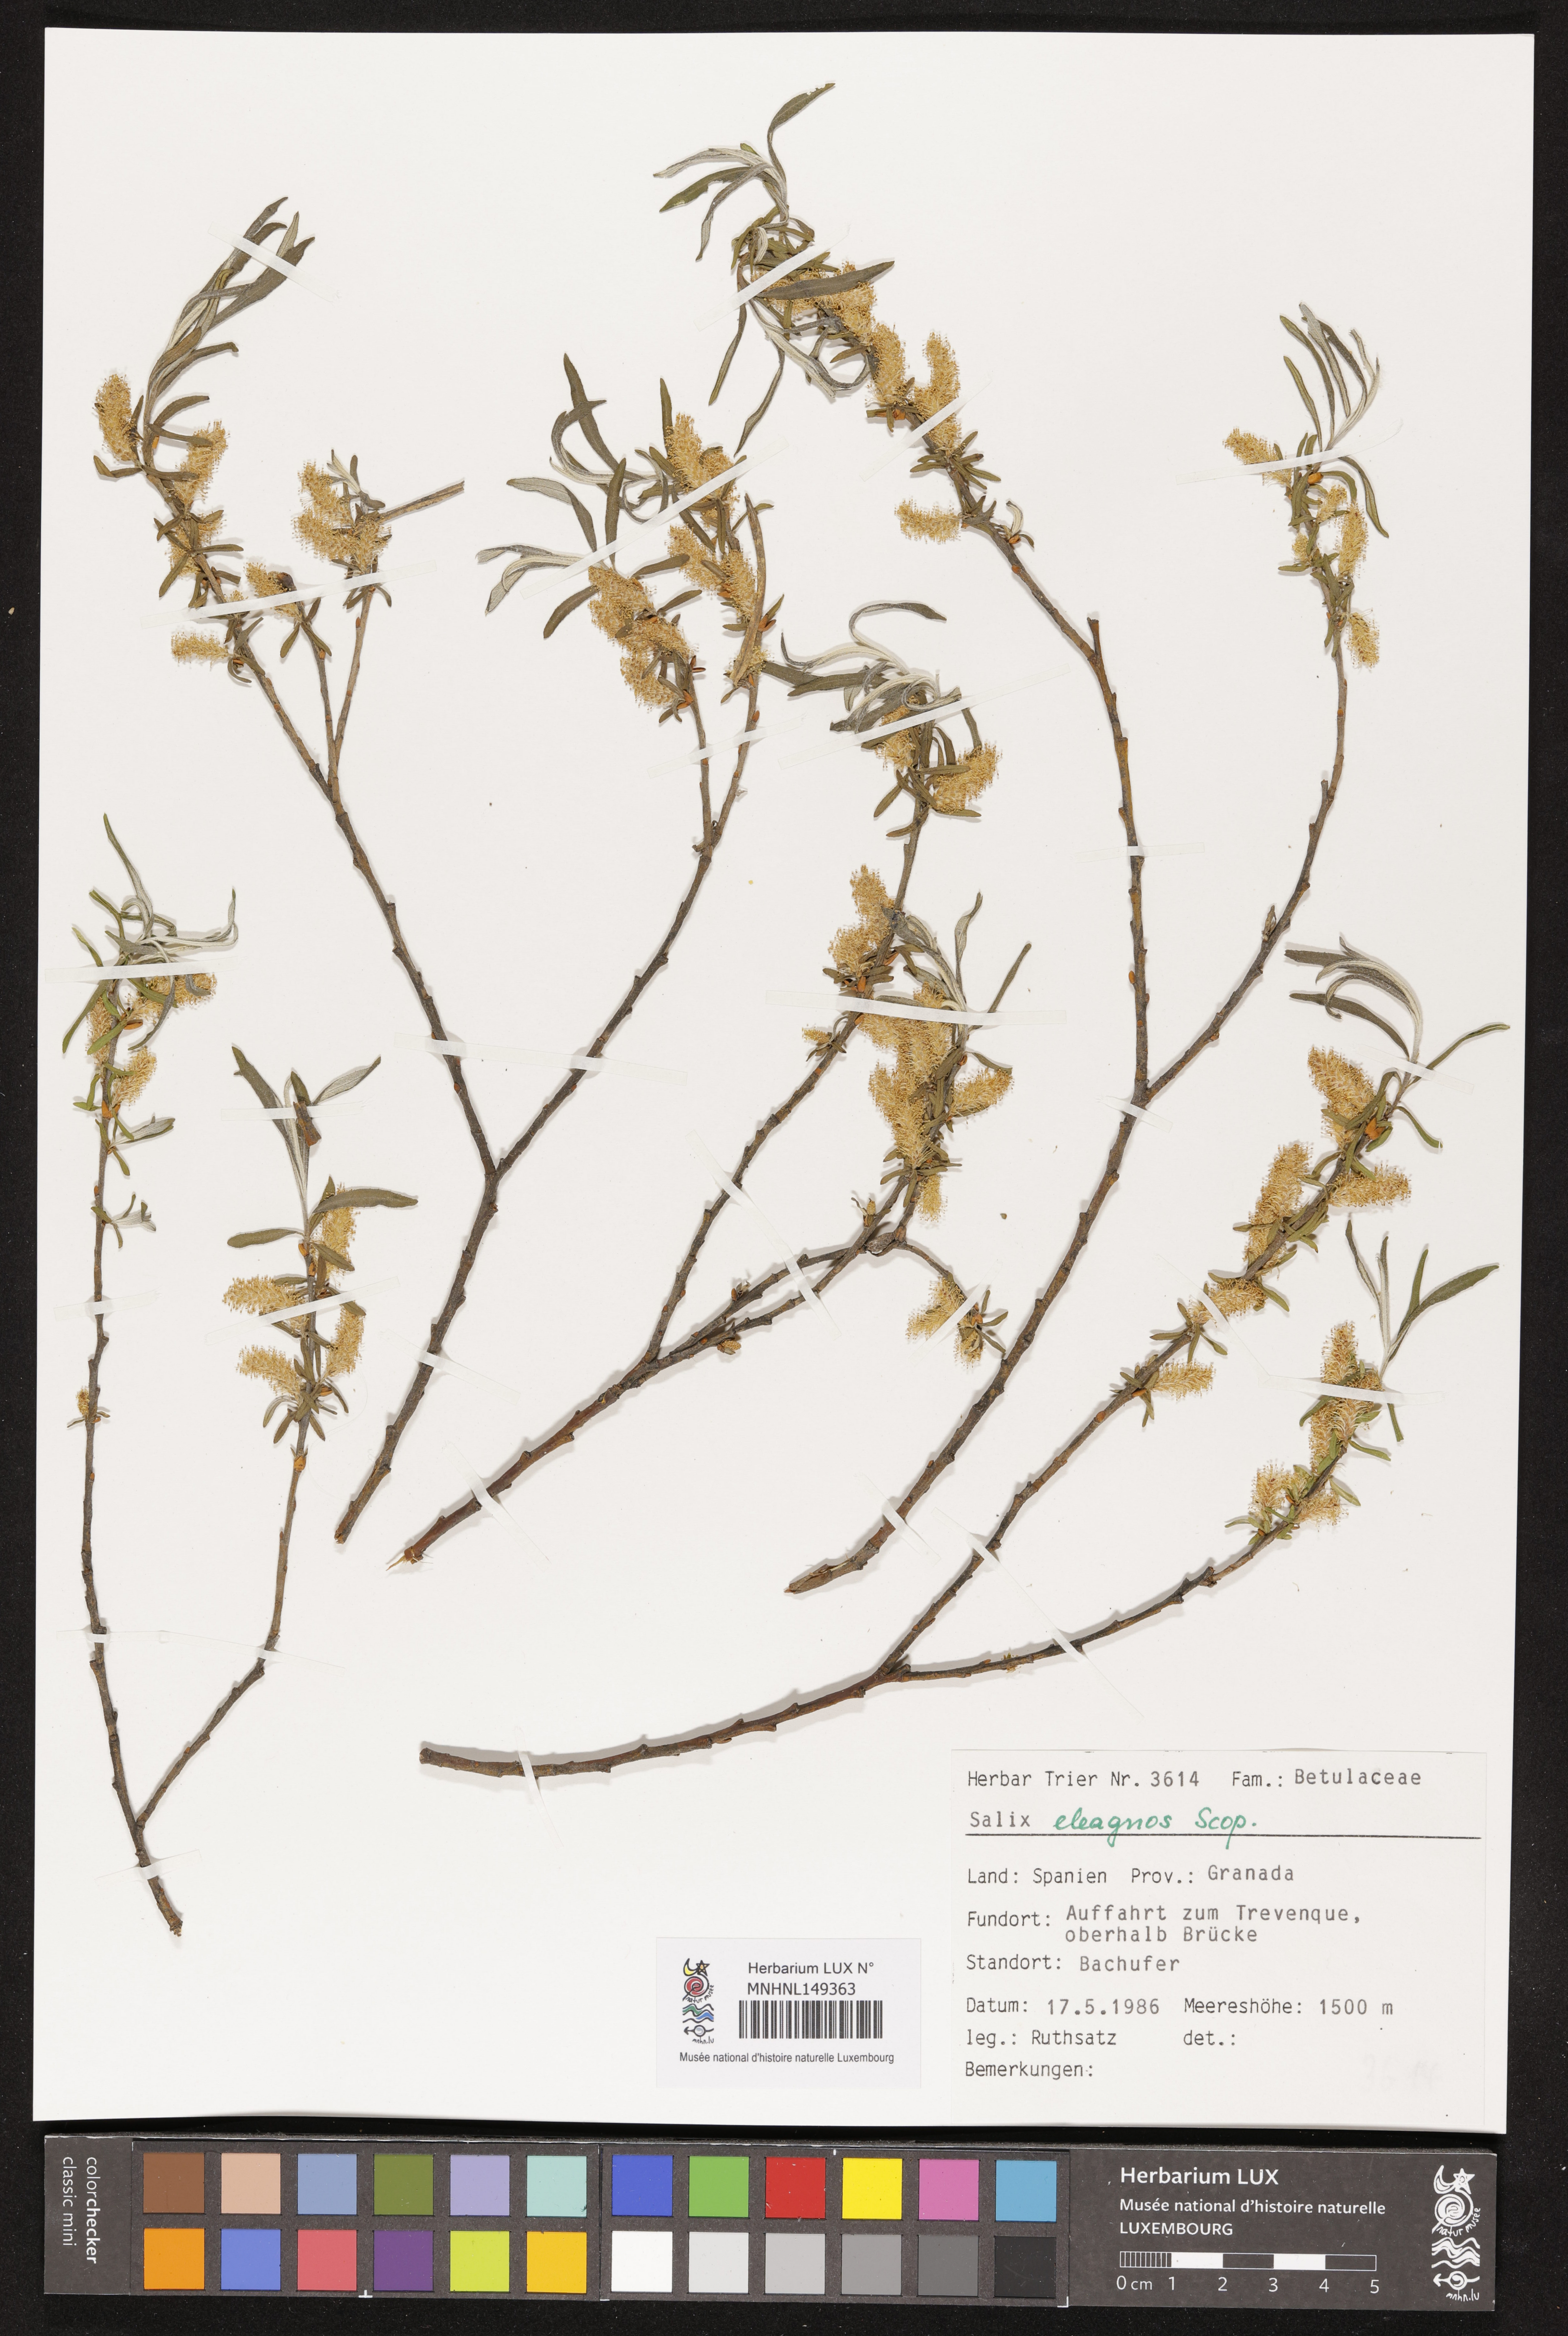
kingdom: Plantae
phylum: Tracheophyta
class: Magnoliopsida
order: Malpighiales
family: Salicaceae
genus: Salix
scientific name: Salix eleagnos
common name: Elaeagnus willow
